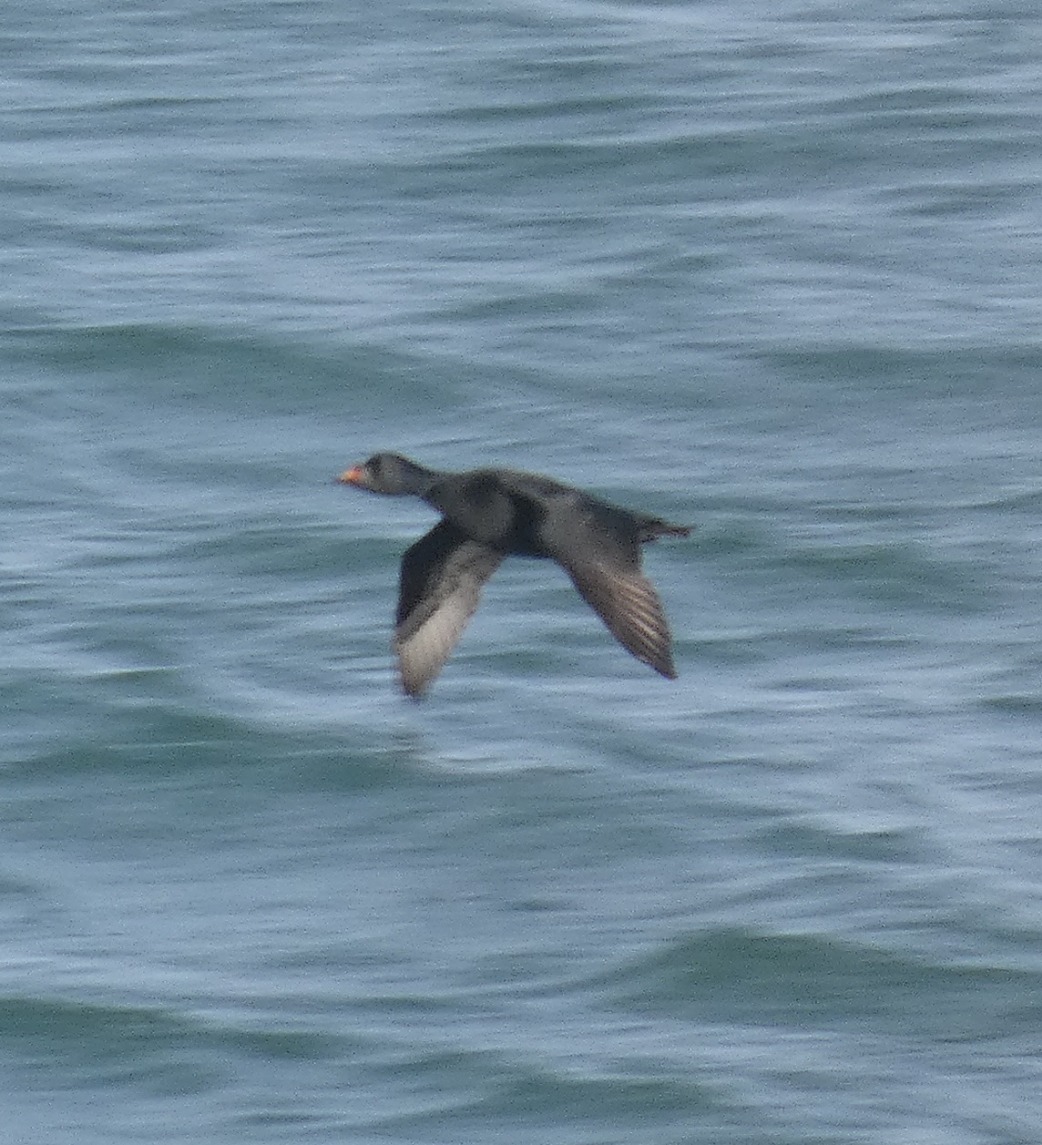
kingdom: Animalia
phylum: Chordata
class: Aves
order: Anseriformes
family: Anatidae
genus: Melanitta
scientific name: Melanitta nigra
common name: Sortand
